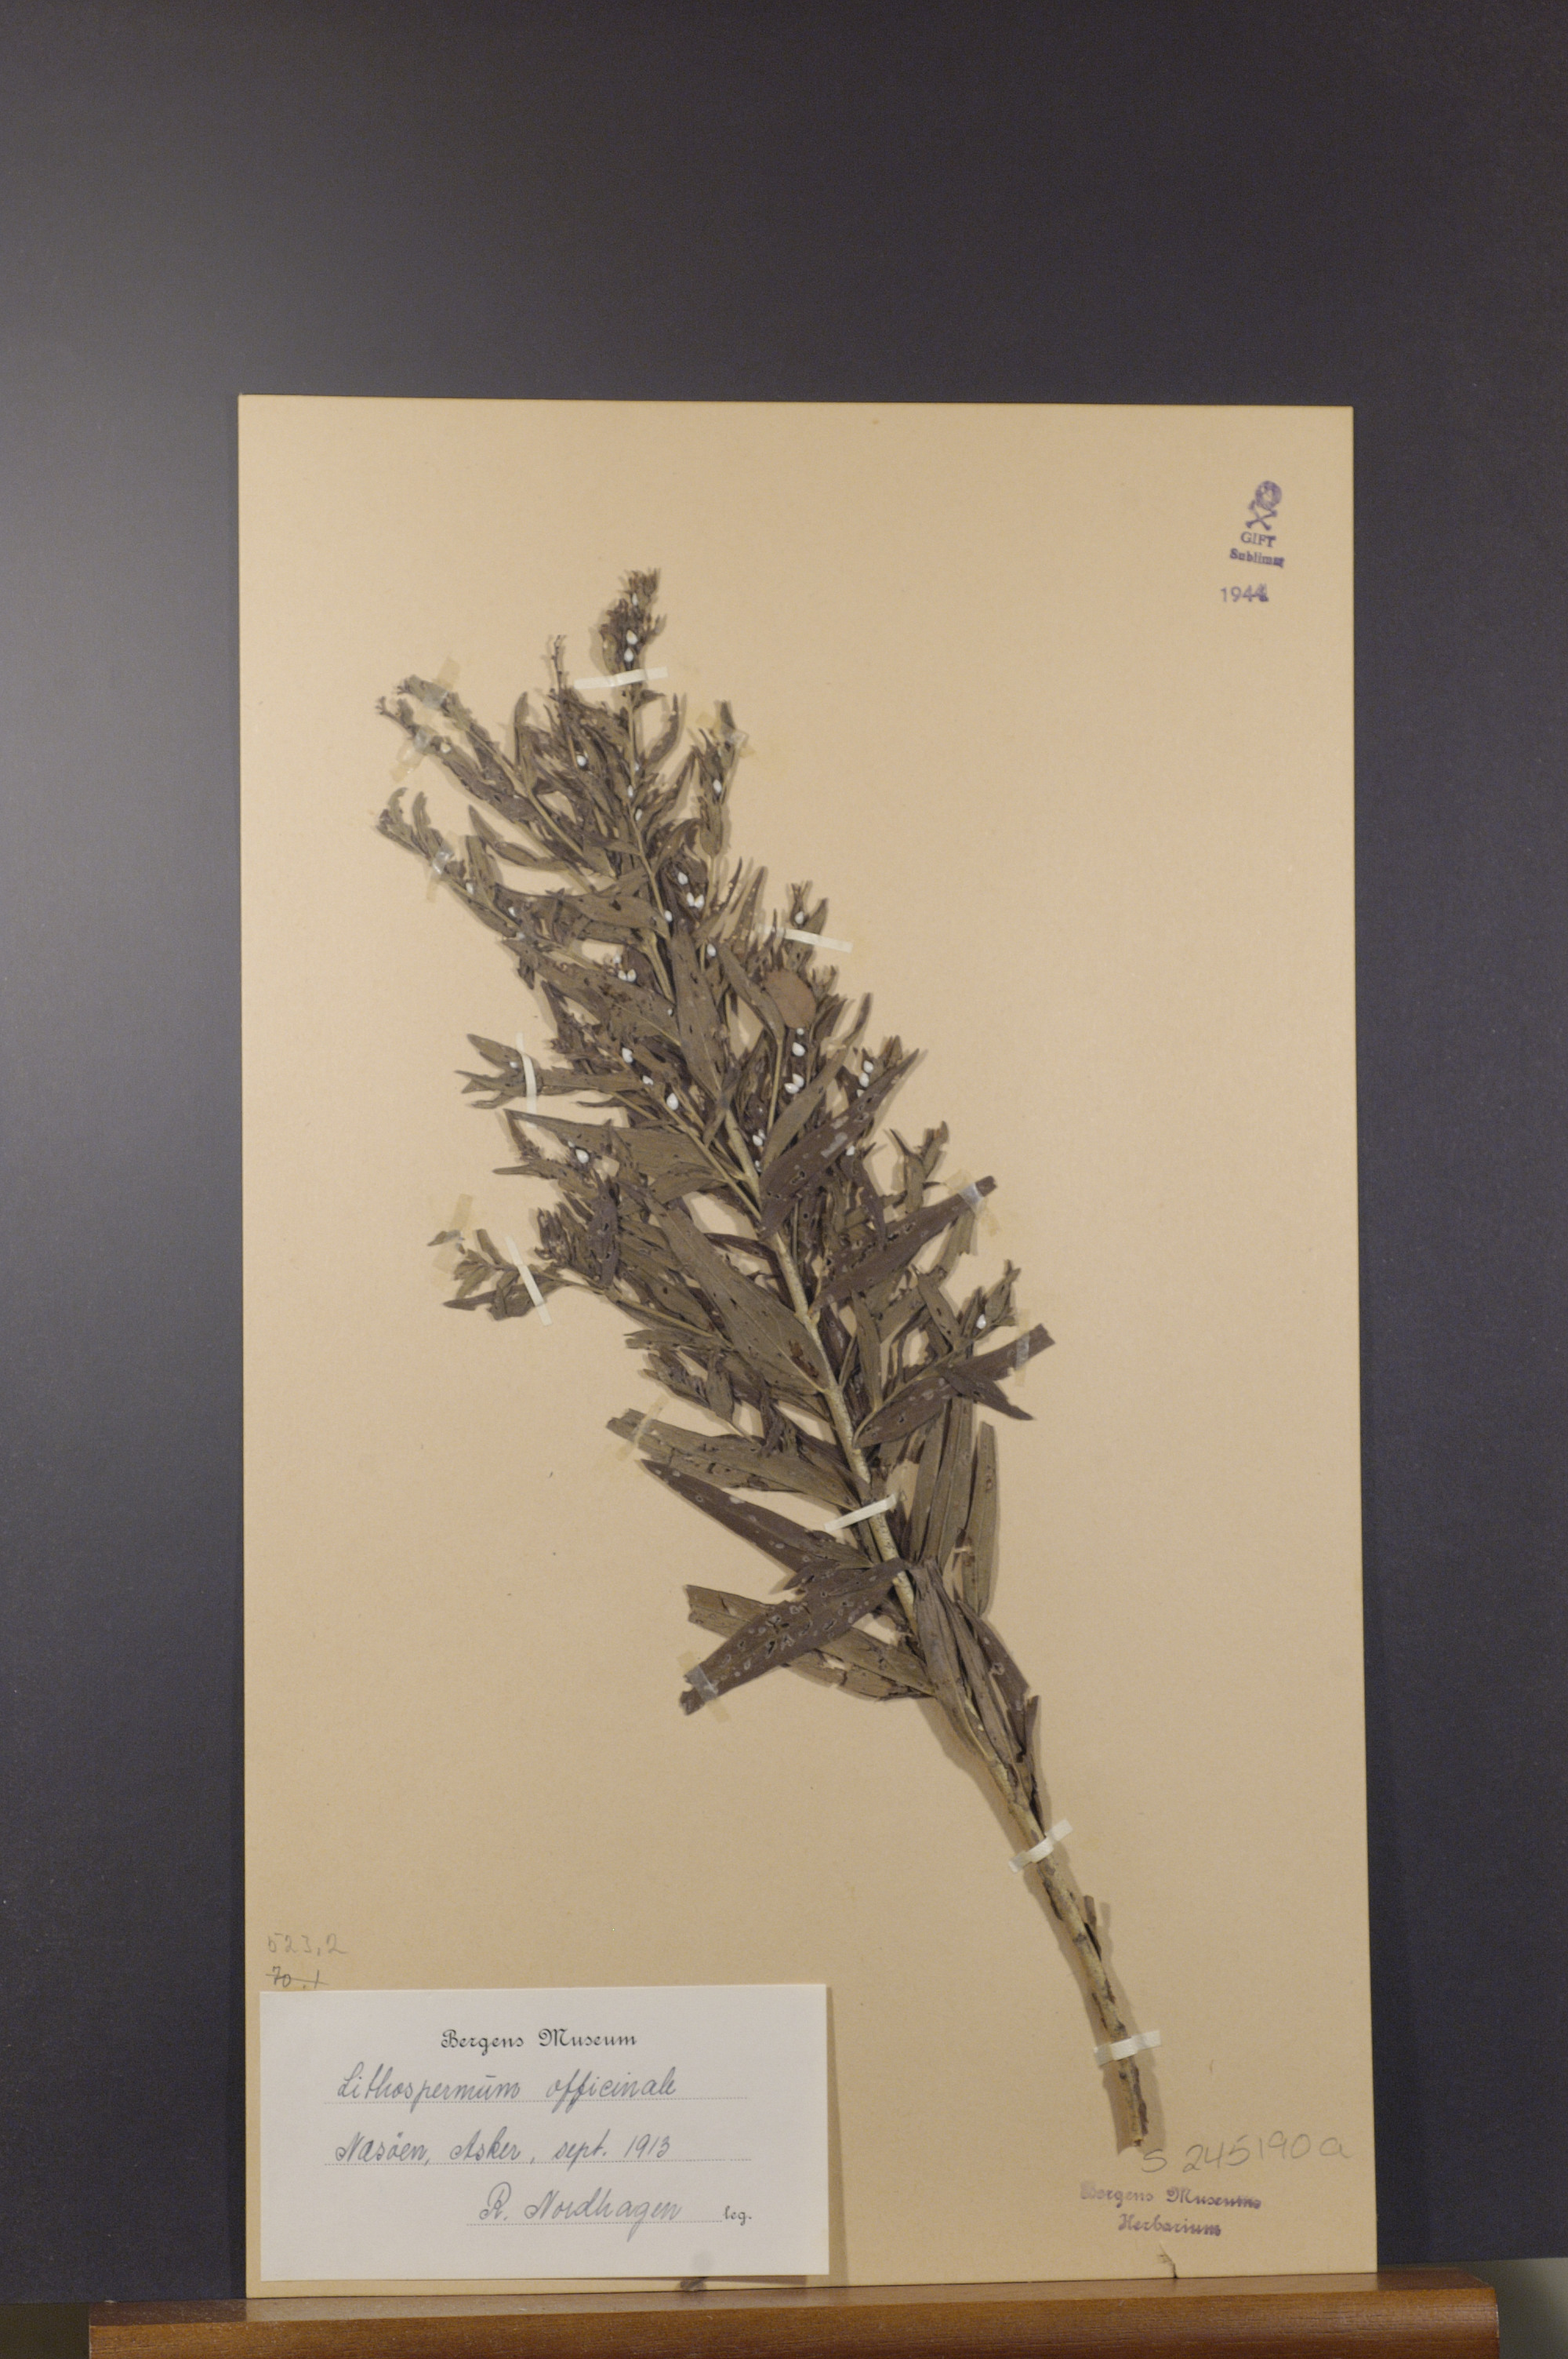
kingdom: Plantae
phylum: Tracheophyta
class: Magnoliopsida
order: Boraginales
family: Boraginaceae
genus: Lithospermum
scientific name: Lithospermum officinale
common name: Common gromwell
